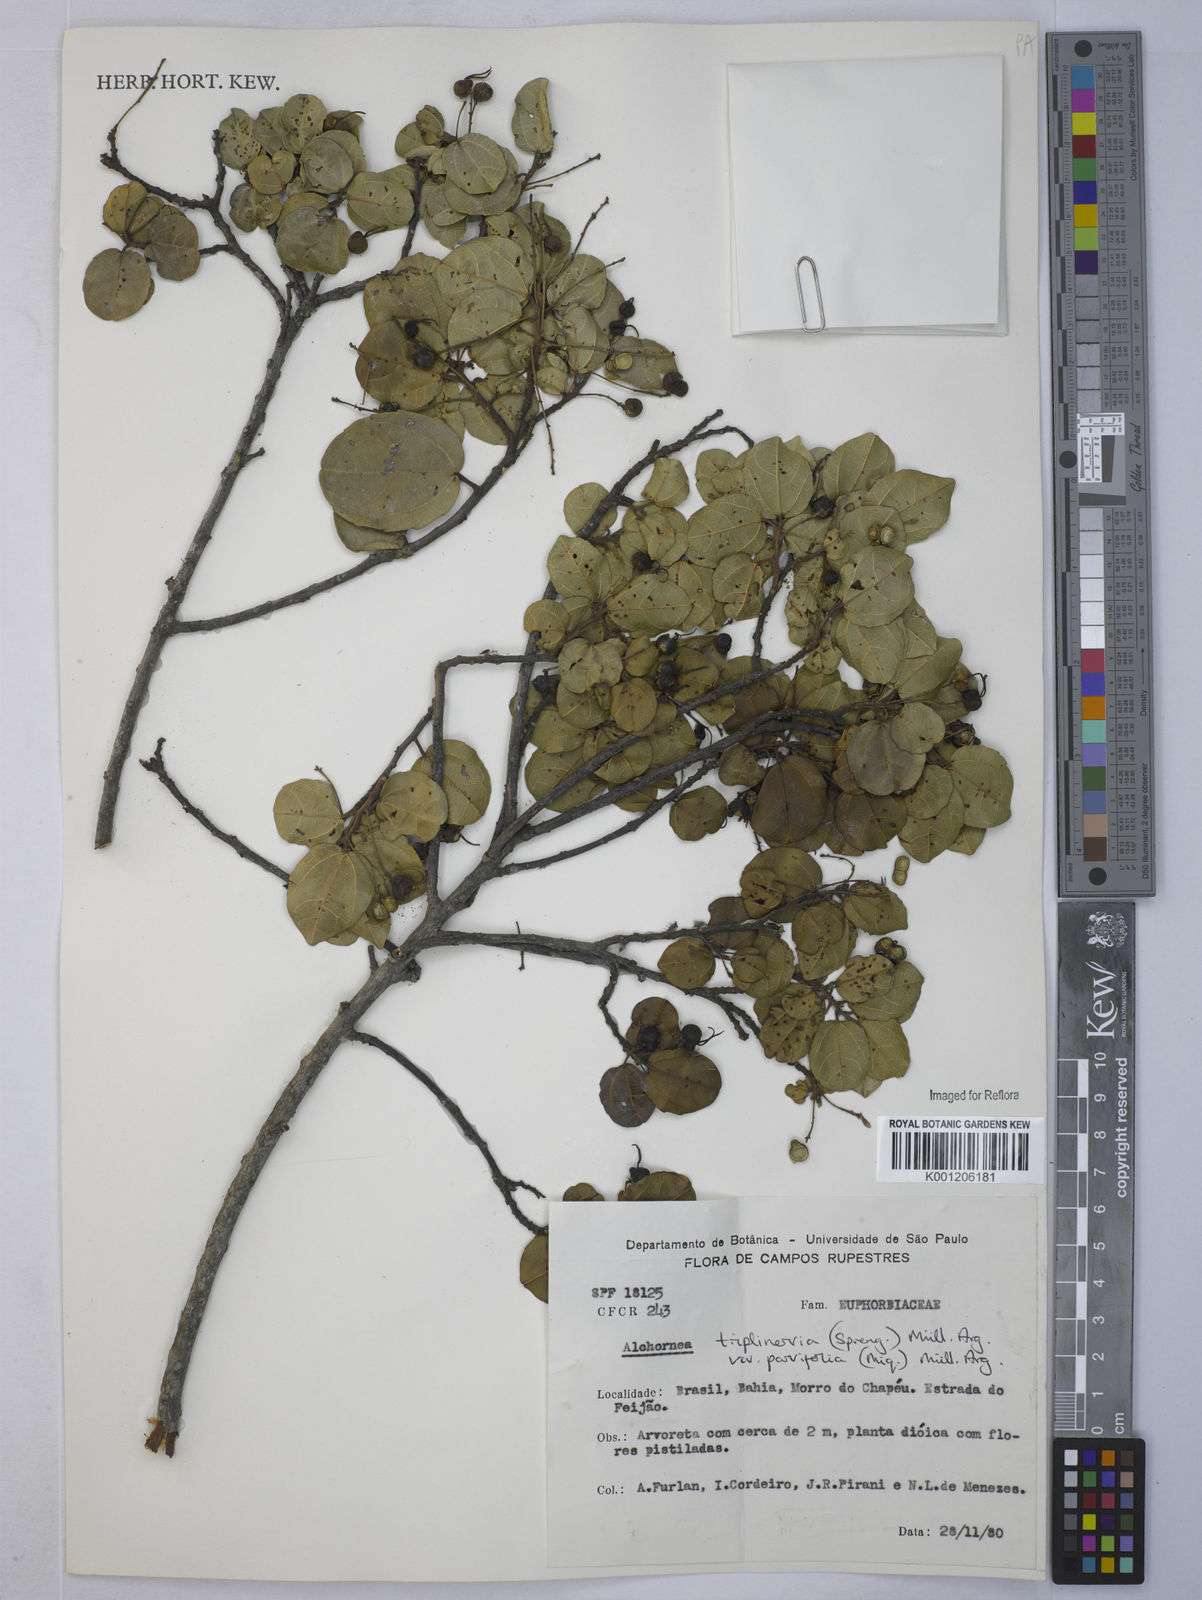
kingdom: Plantae
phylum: Tracheophyta
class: Magnoliopsida
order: Malpighiales
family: Euphorbiaceae
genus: Alchornea
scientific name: Alchornea
